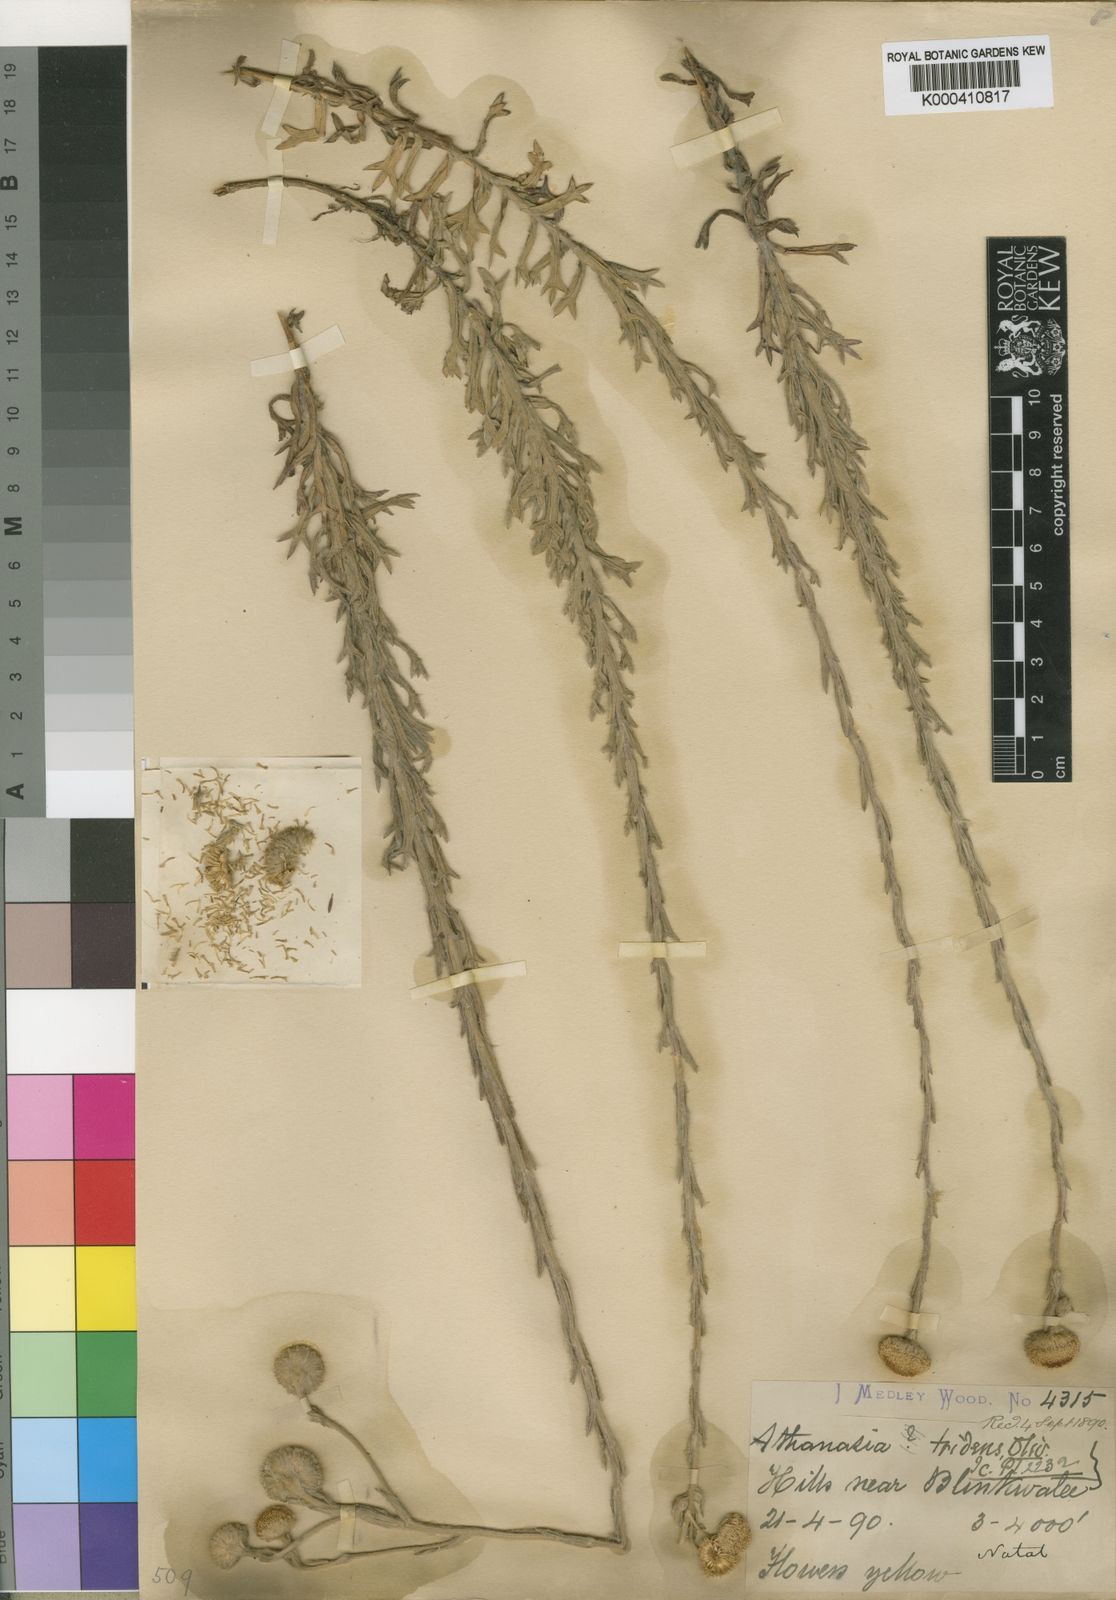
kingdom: Plantae
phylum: Tracheophyta
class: Magnoliopsida
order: Asterales
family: Asteraceae
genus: Inulanthera
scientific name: Inulanthera
